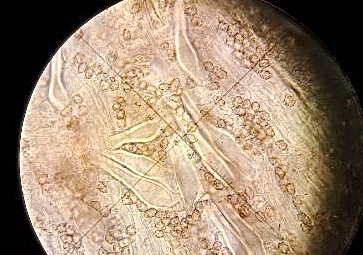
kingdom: Fungi
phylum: Basidiomycota
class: Agaricomycetes
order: Agaricales
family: Inocybaceae
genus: Inocybe
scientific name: Inocybe petiginosa
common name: liden trævlhat
